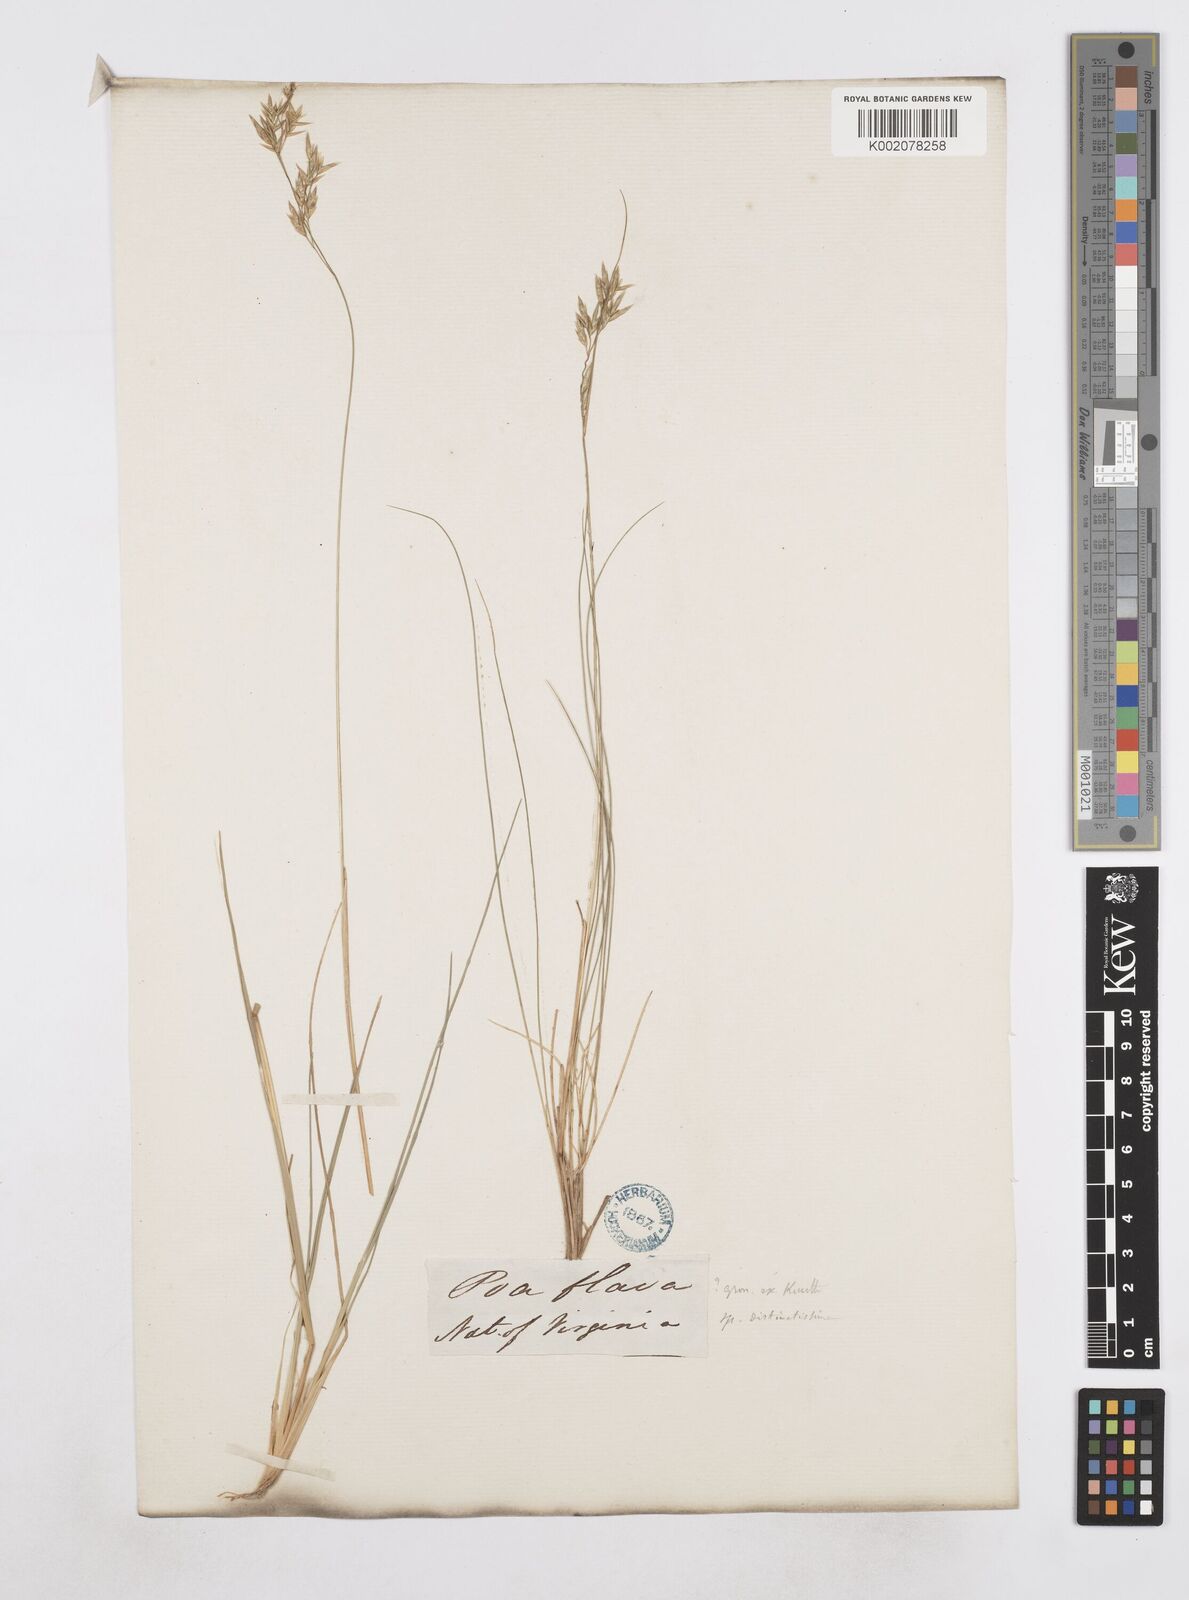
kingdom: Plantae
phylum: Tracheophyta
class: Liliopsida
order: Poales
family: Poaceae
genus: Poa
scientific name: Poa
